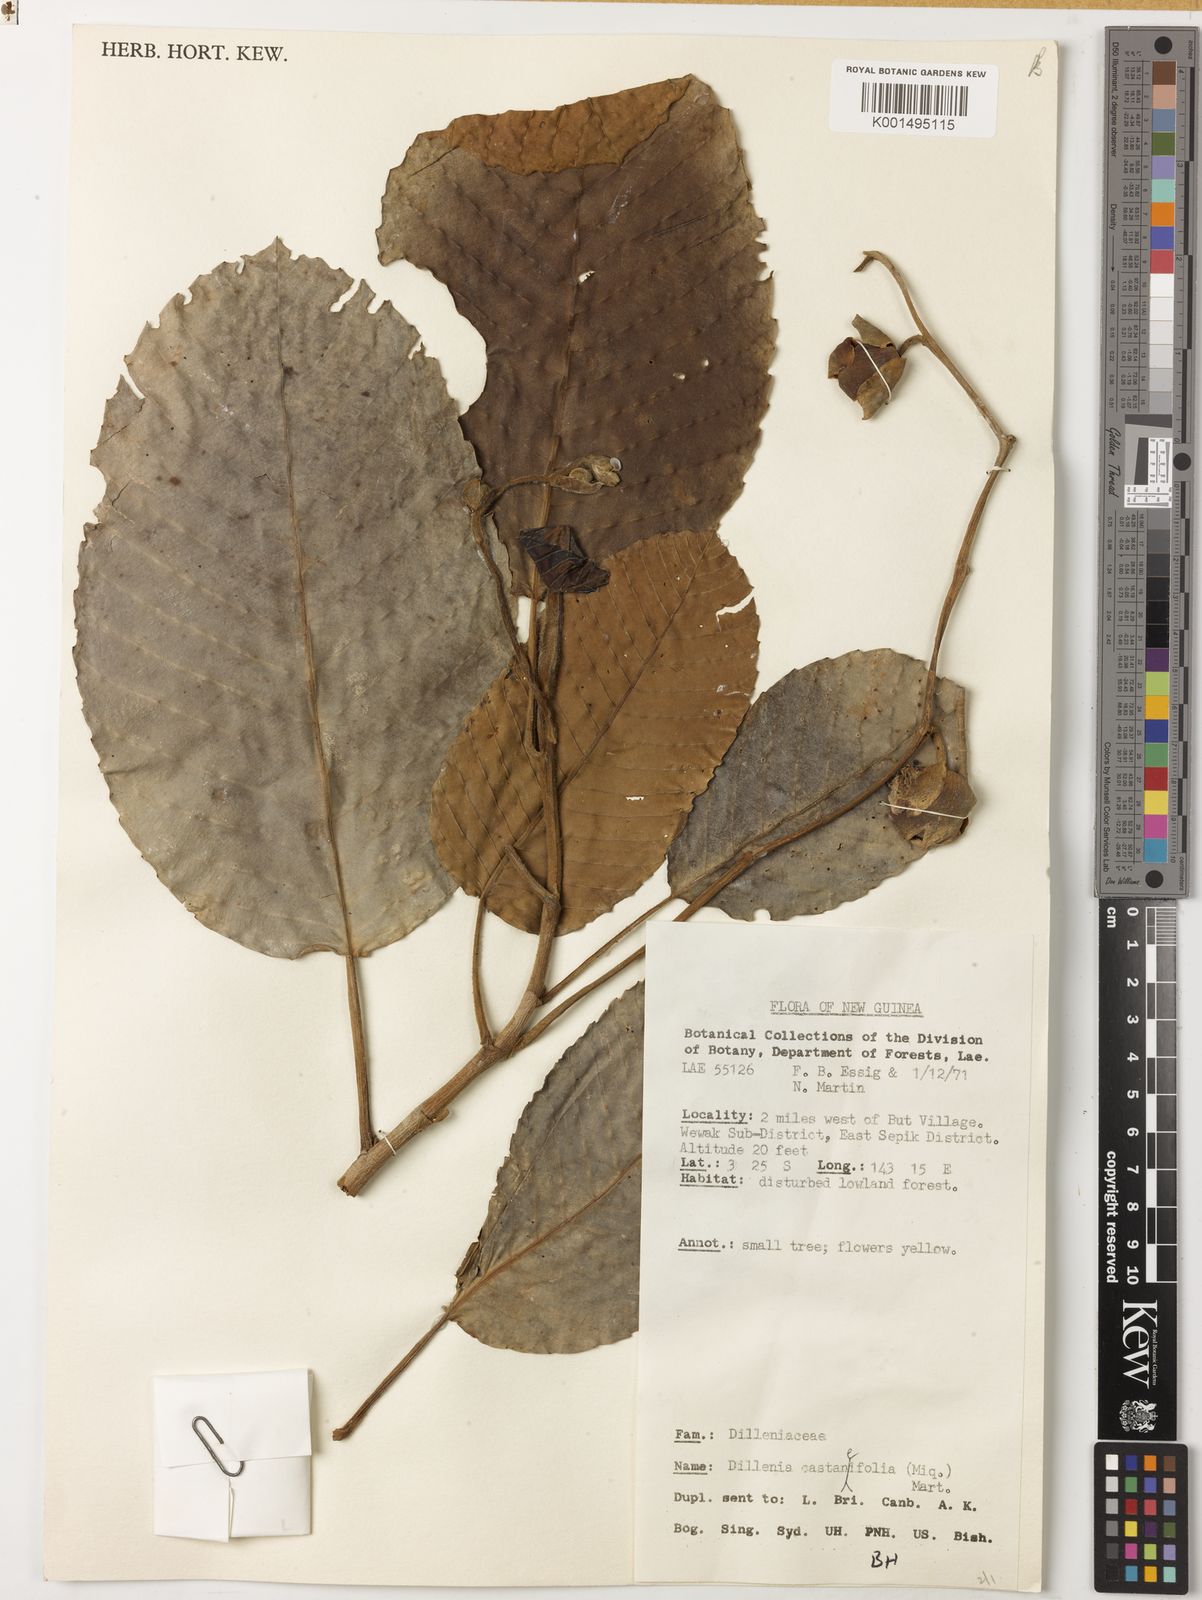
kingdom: Plantae
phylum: Tracheophyta
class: Magnoliopsida
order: Dilleniales
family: Dilleniaceae
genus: Dillenia
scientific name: Dillenia castaneifolia
